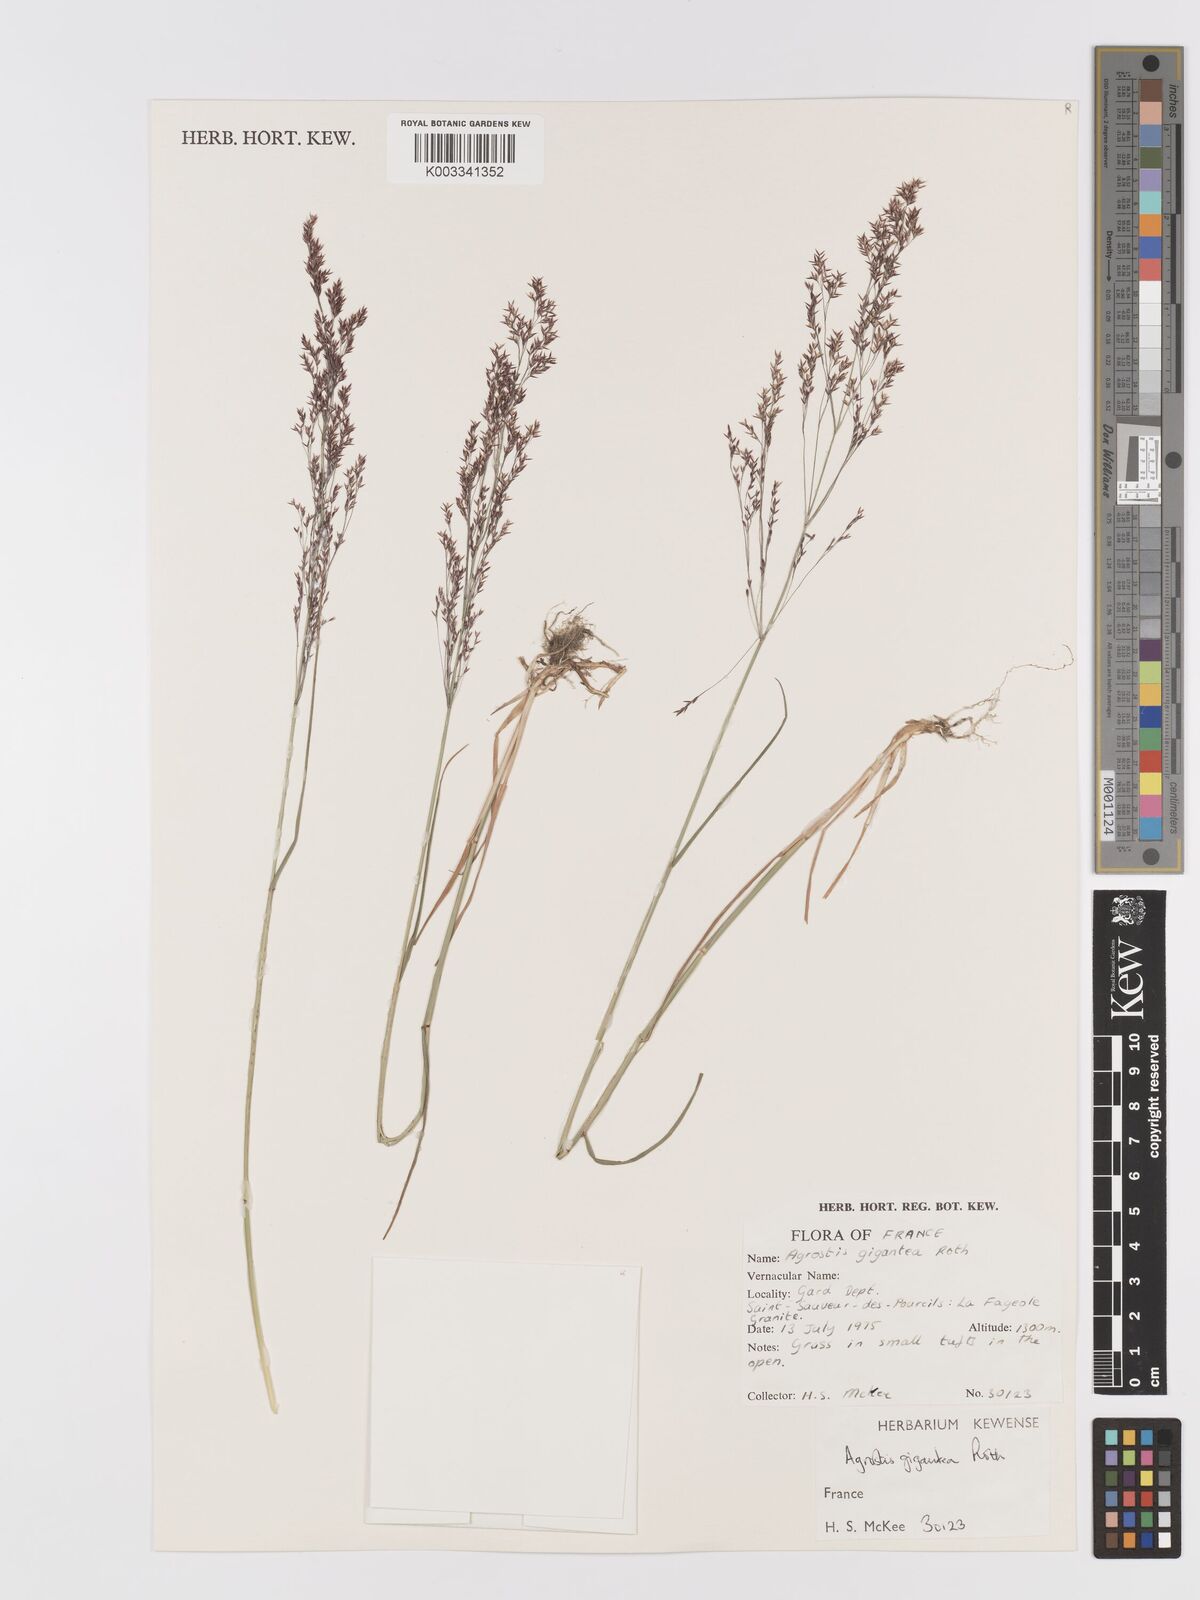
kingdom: Plantae
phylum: Tracheophyta
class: Liliopsida
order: Poales
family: Poaceae
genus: Agrostis
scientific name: Agrostis gigantea
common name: Black bent
